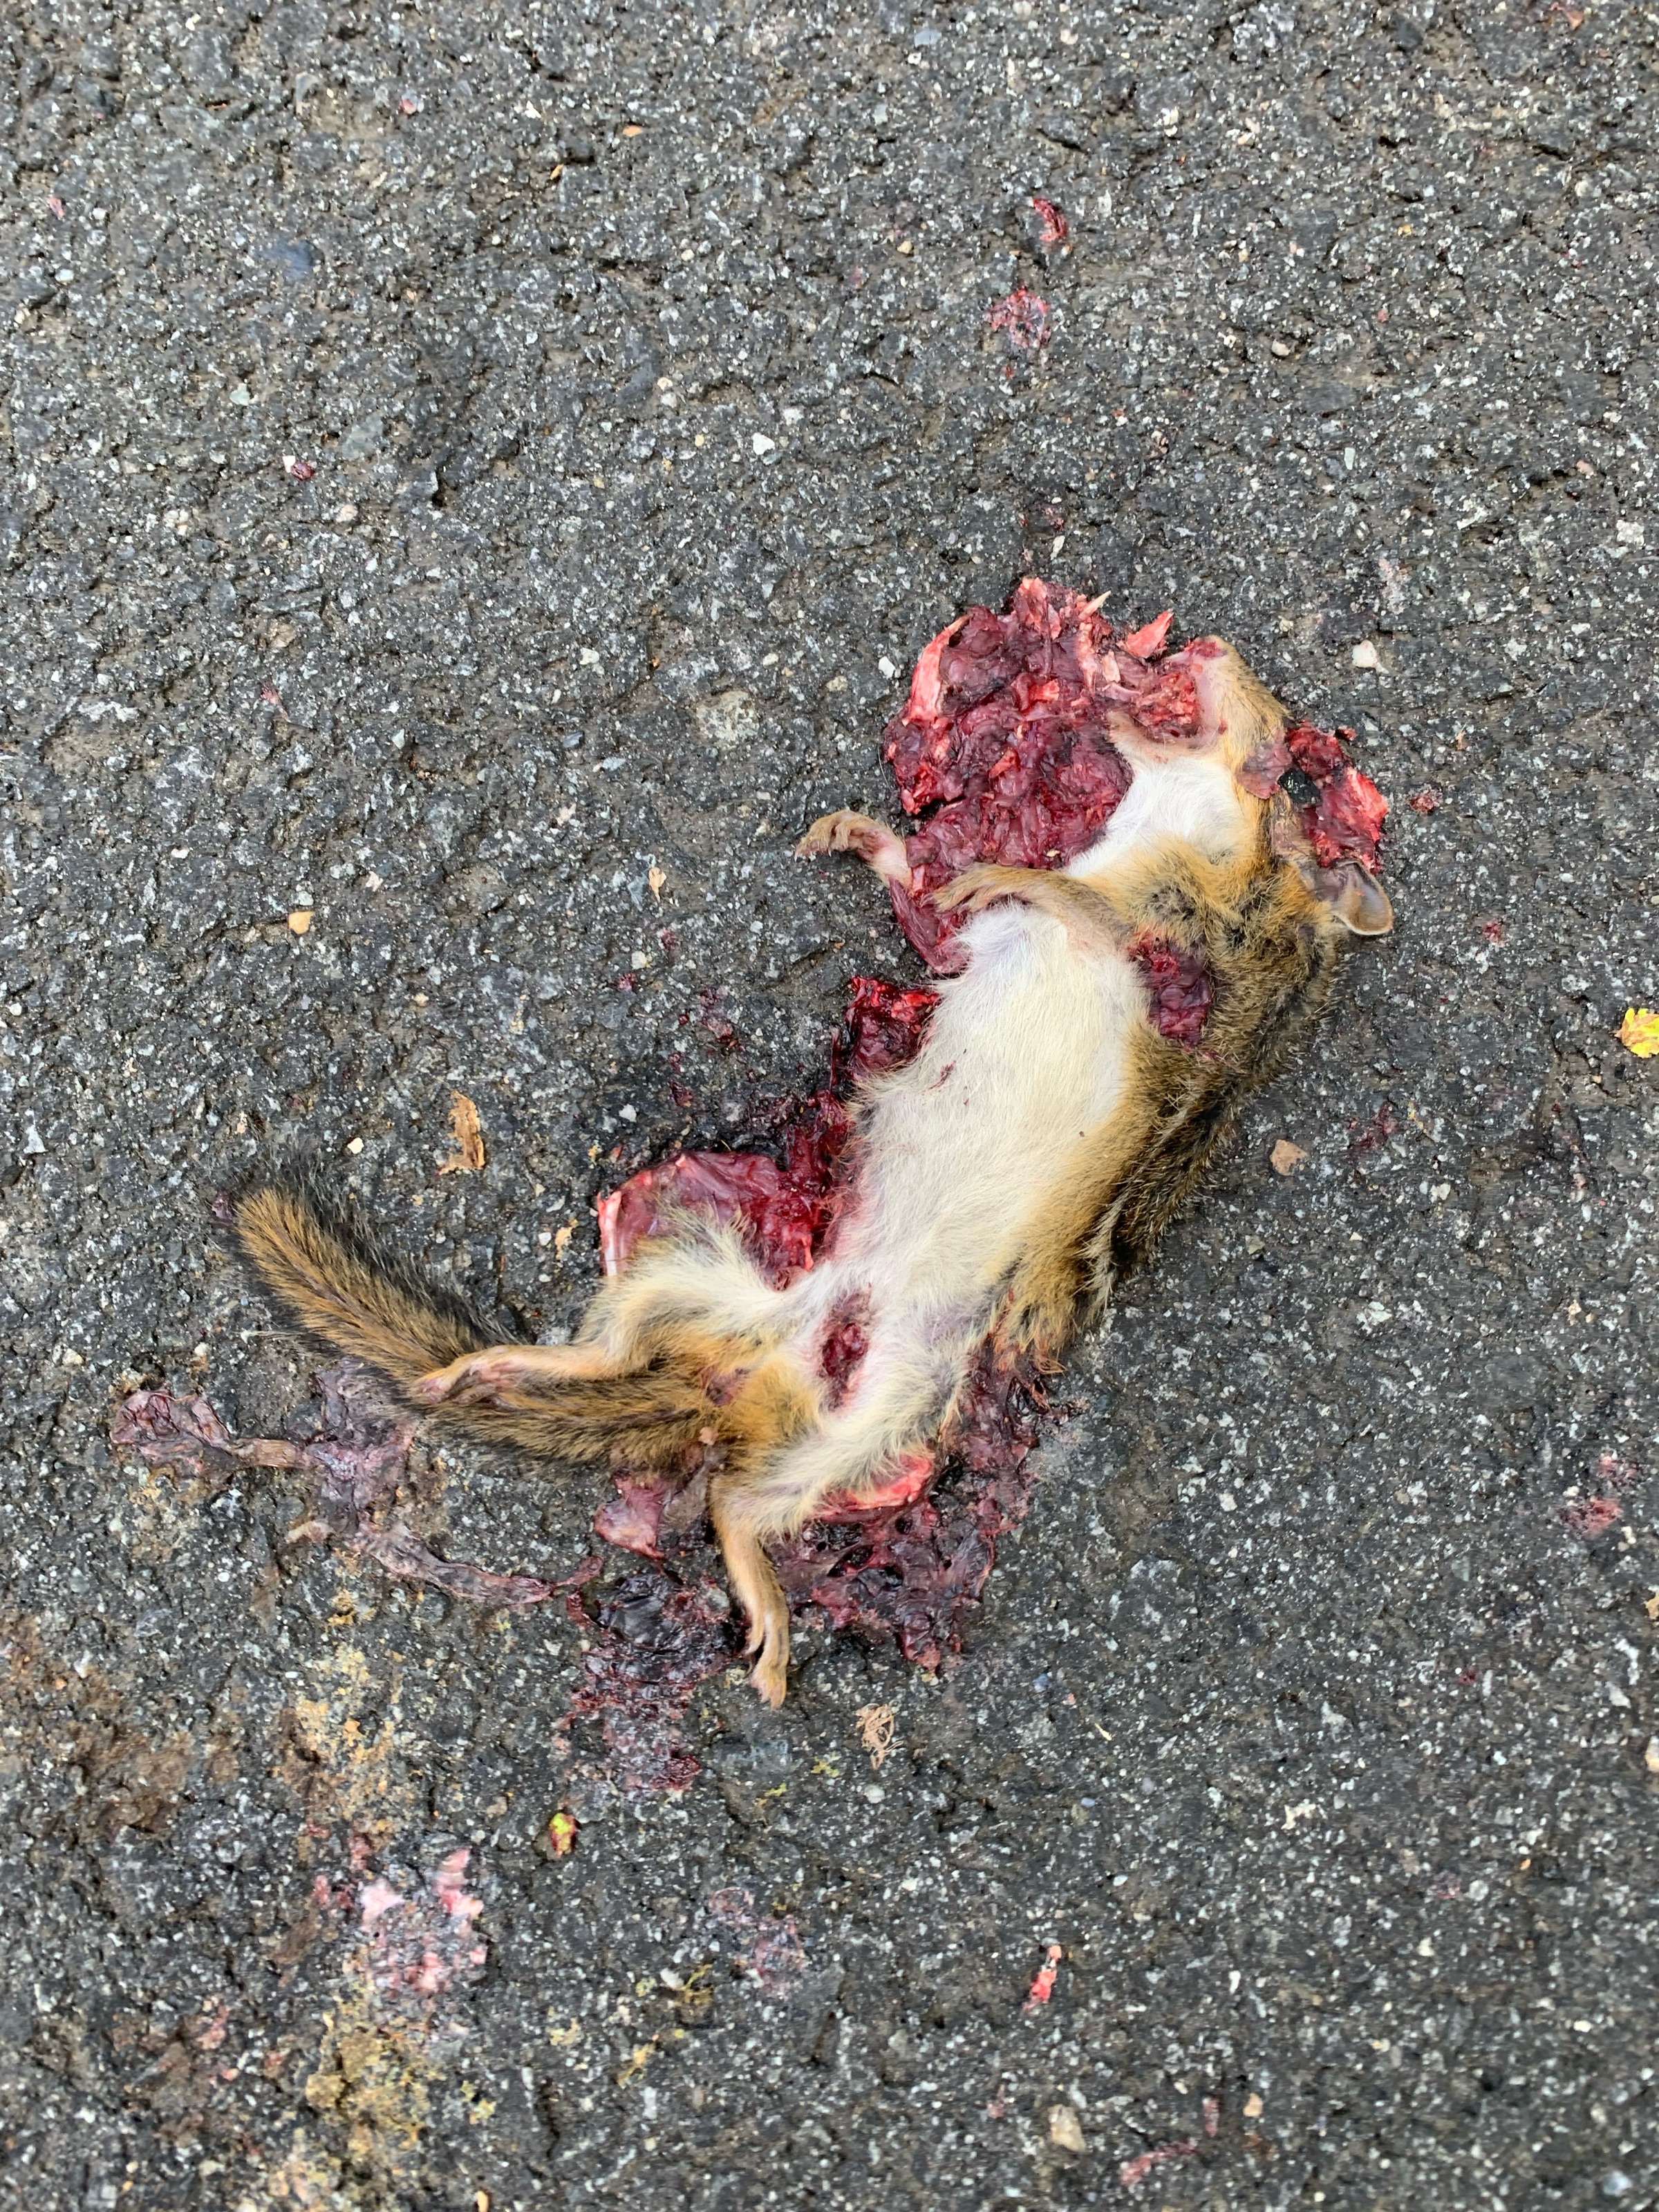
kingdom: Animalia
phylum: Chordata
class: Mammalia
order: Rodentia
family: Sciuridae
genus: Tamias
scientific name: Tamias striatus
